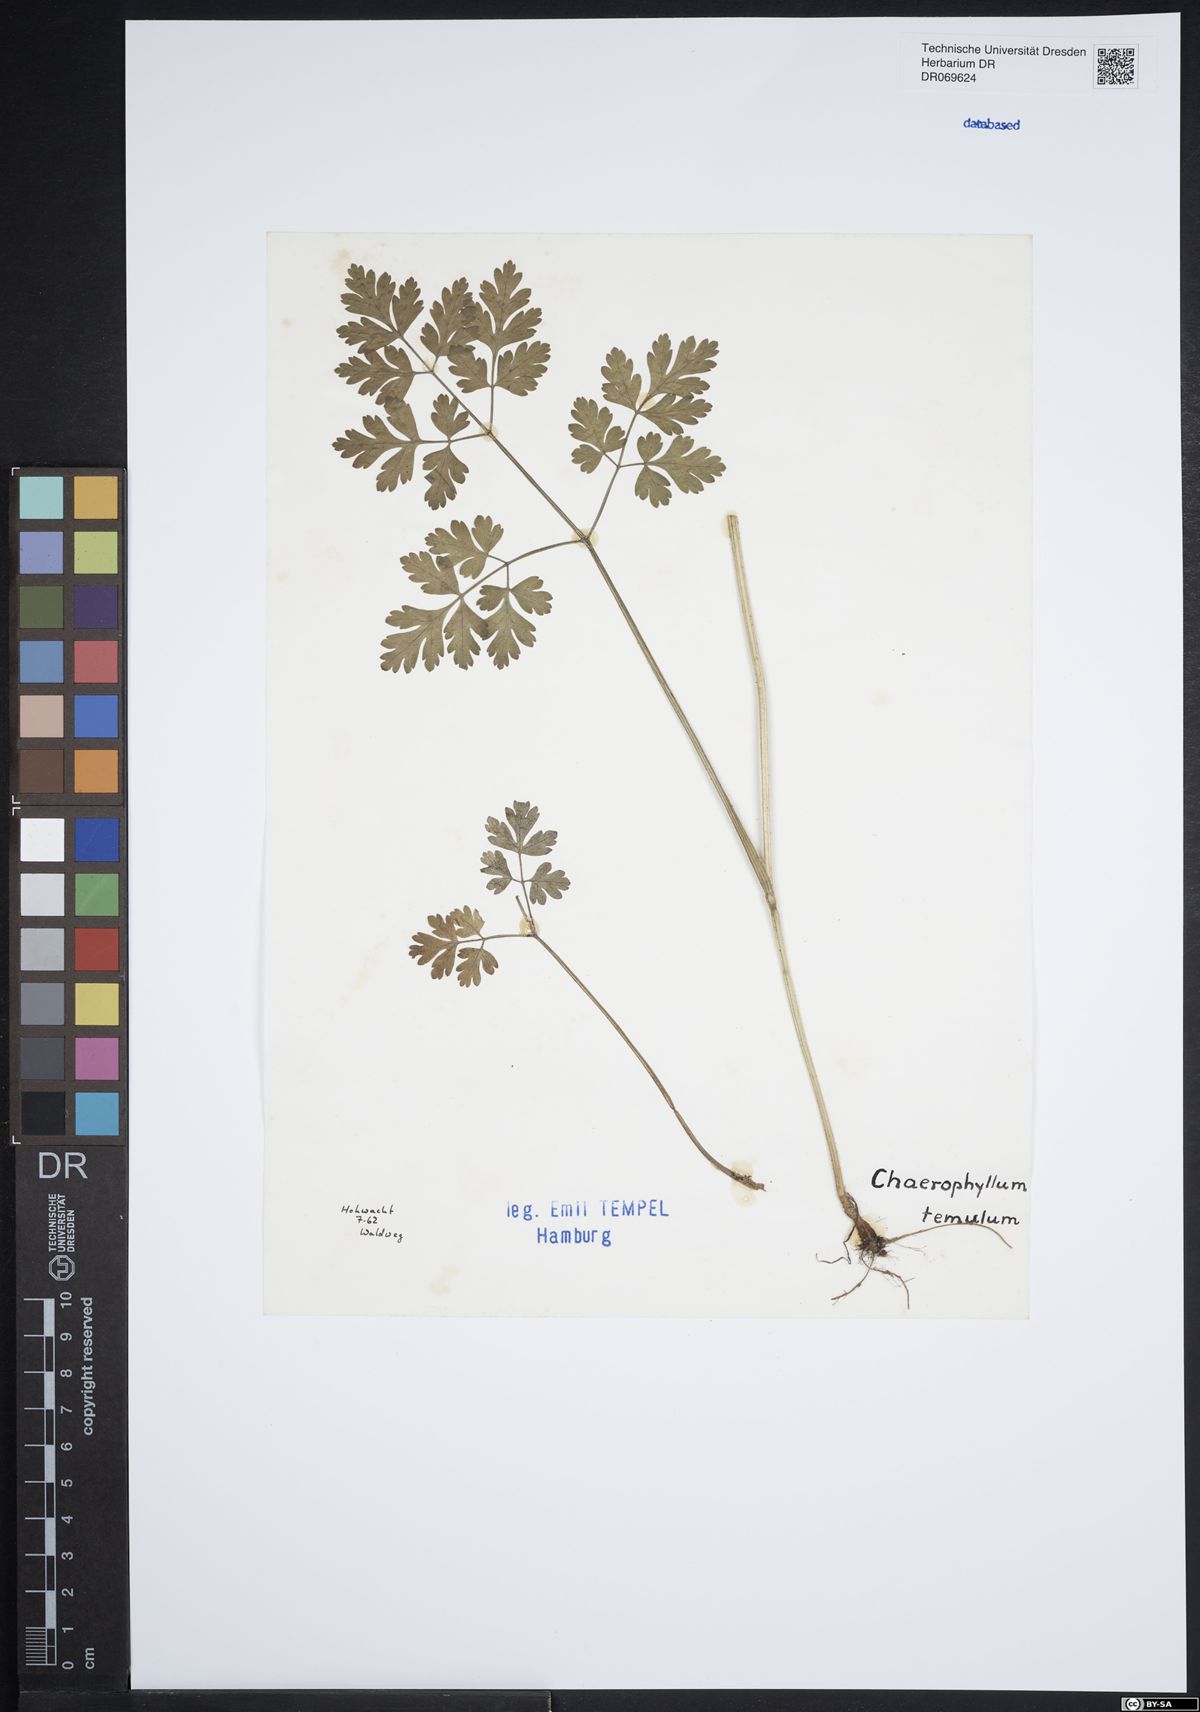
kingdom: Plantae
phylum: Tracheophyta
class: Magnoliopsida
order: Apiales
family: Apiaceae
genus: Chaerophyllum
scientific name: Chaerophyllum temulum
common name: Rough chervil
